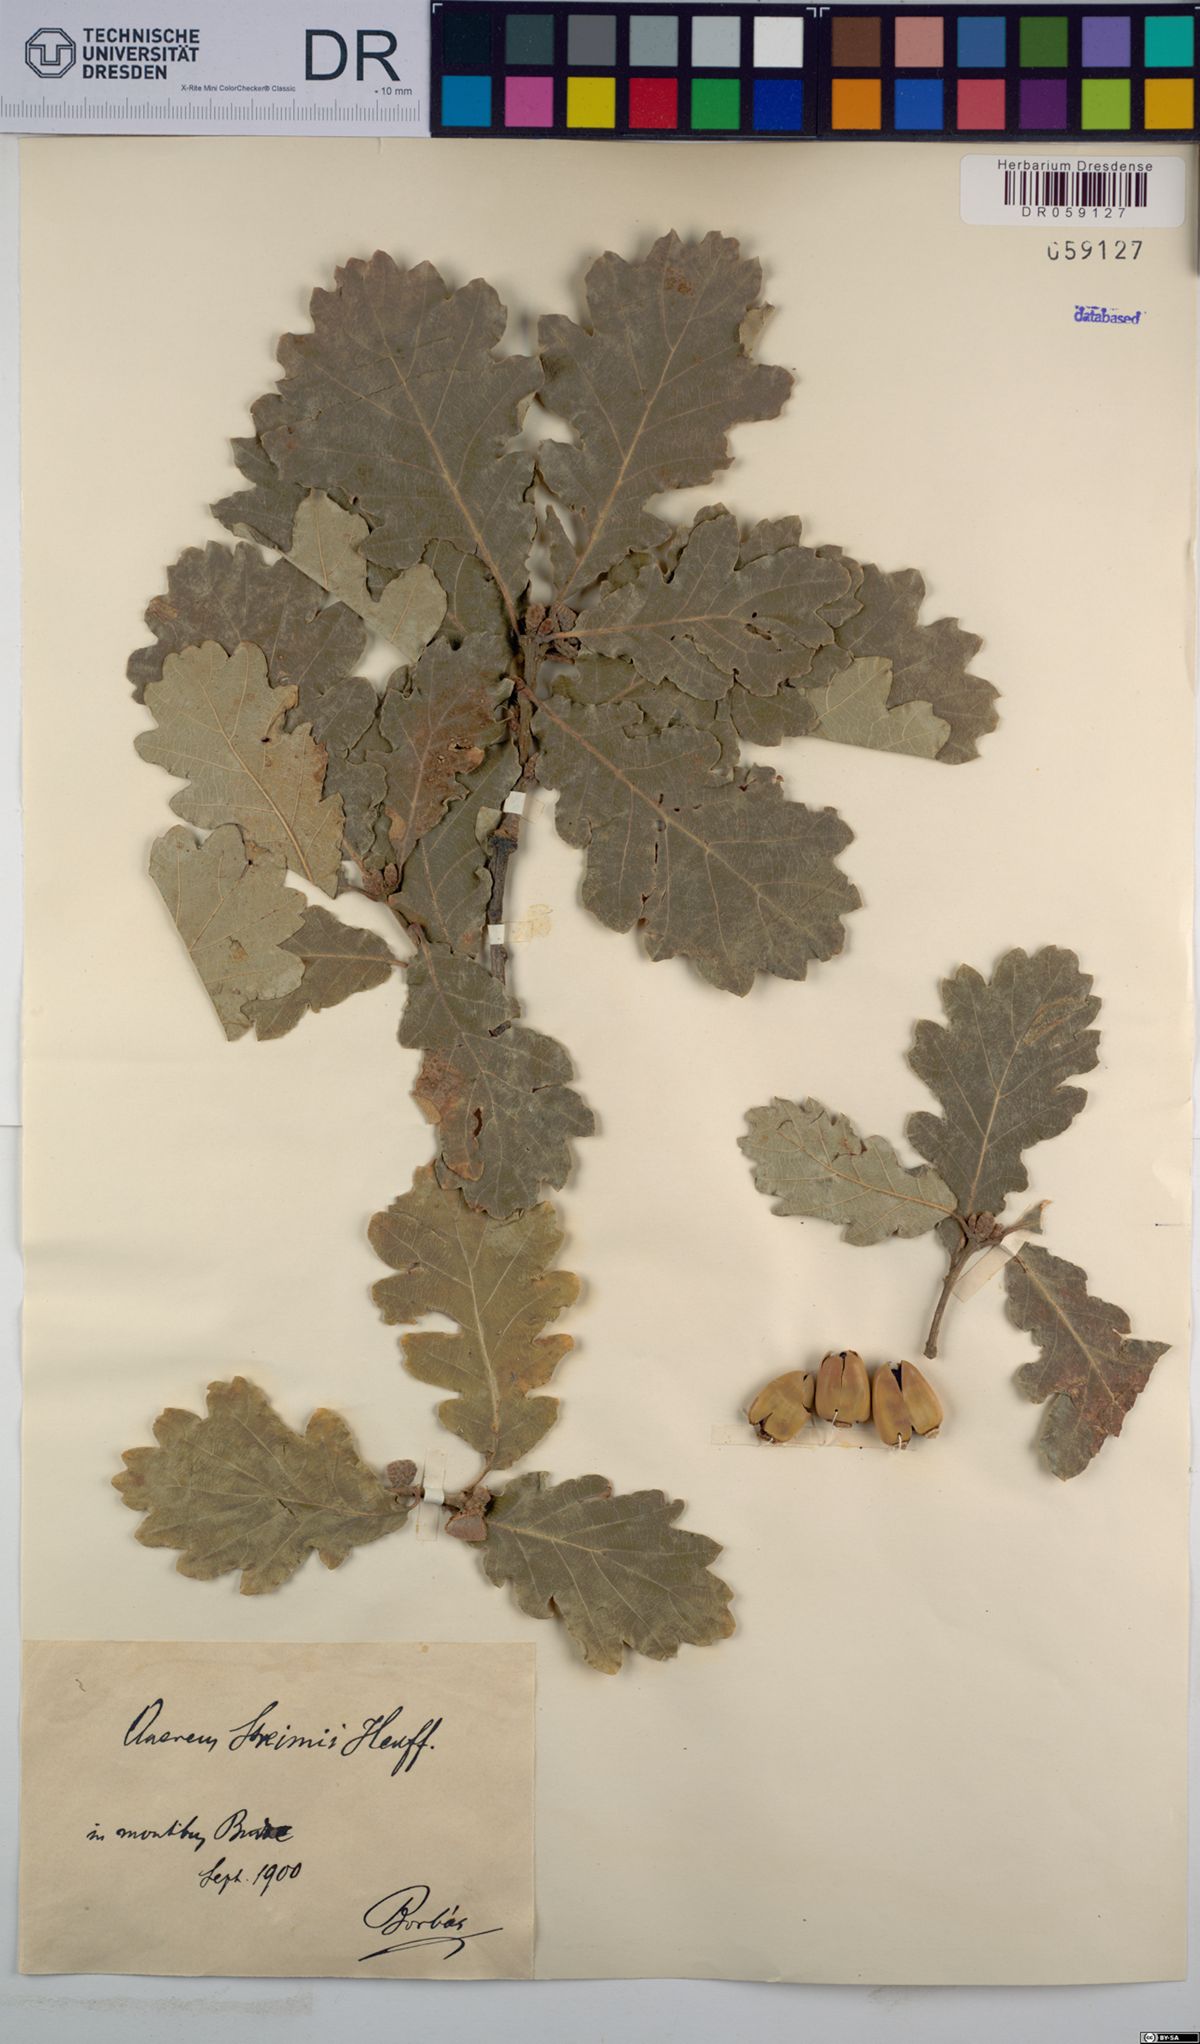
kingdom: Plantae
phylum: Tracheophyta
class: Magnoliopsida
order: Fagales
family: Fagaceae
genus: Quercus
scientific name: Quercus streimii
